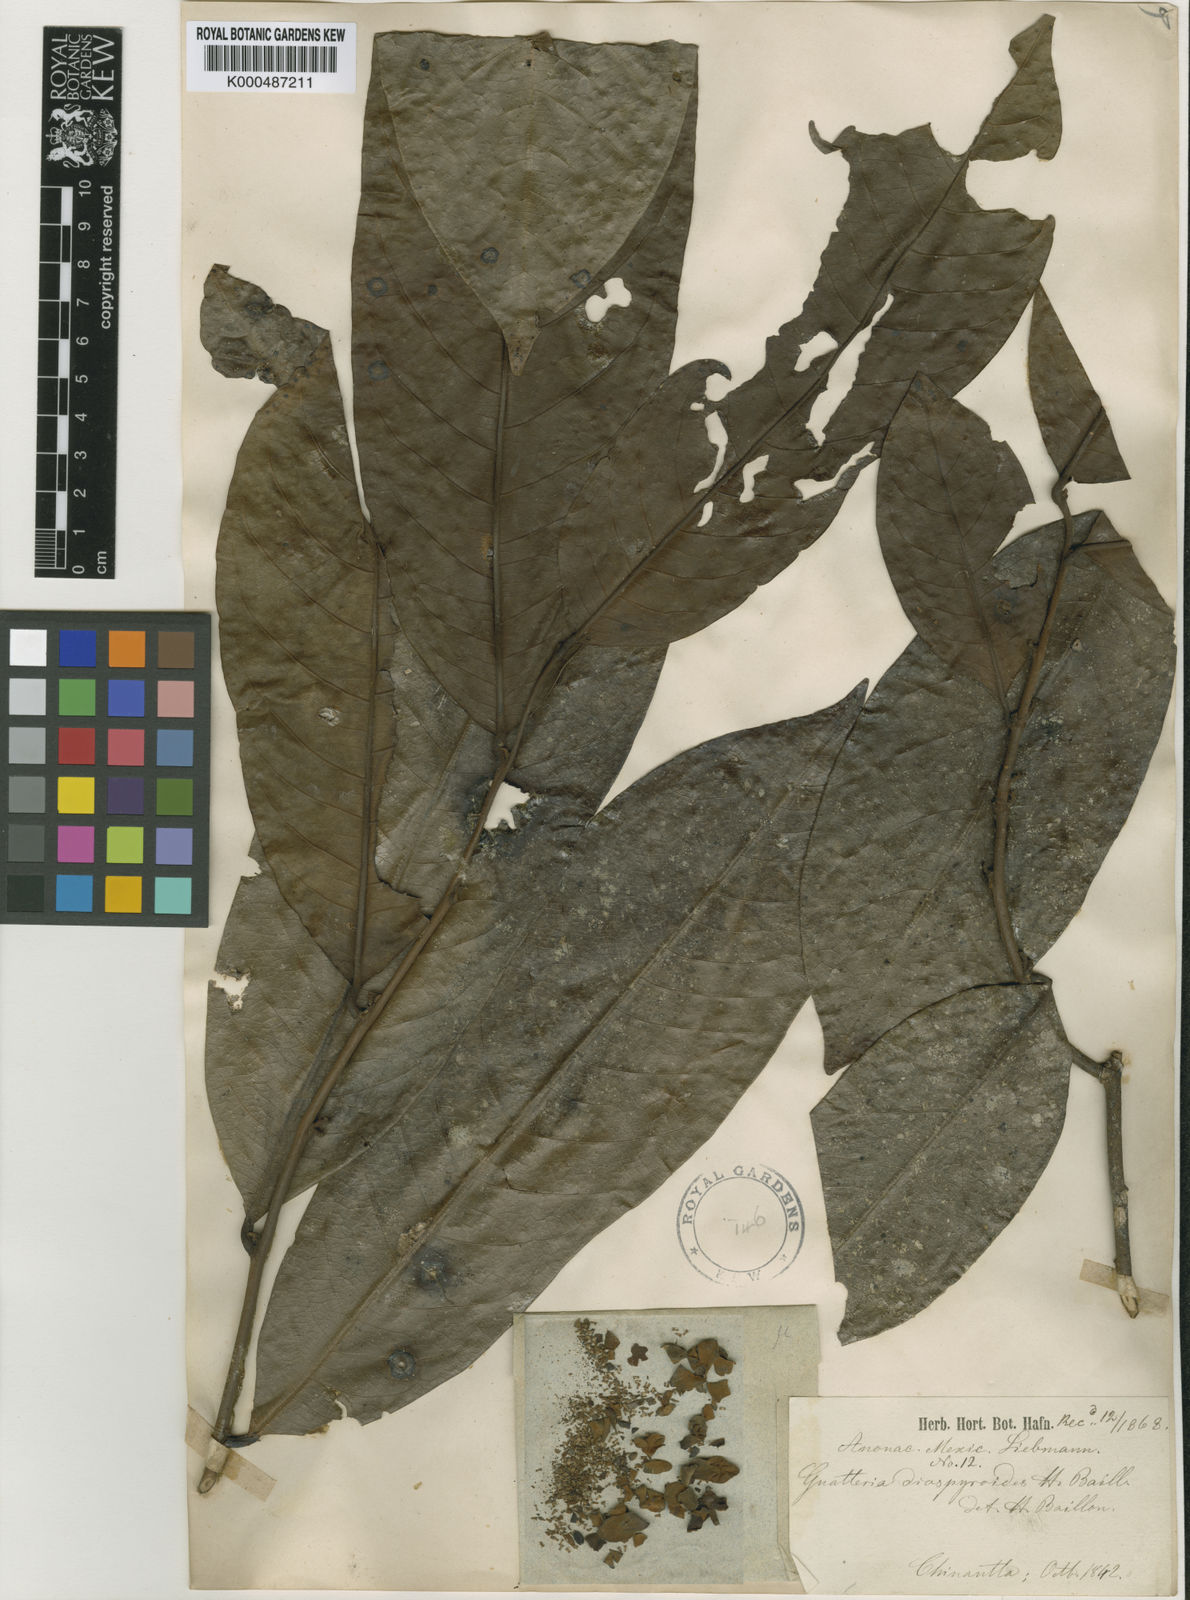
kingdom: Plantae
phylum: Tracheophyta
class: Magnoliopsida
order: Magnoliales
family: Annonaceae
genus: Guatteria
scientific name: Guatteria diospyroides
